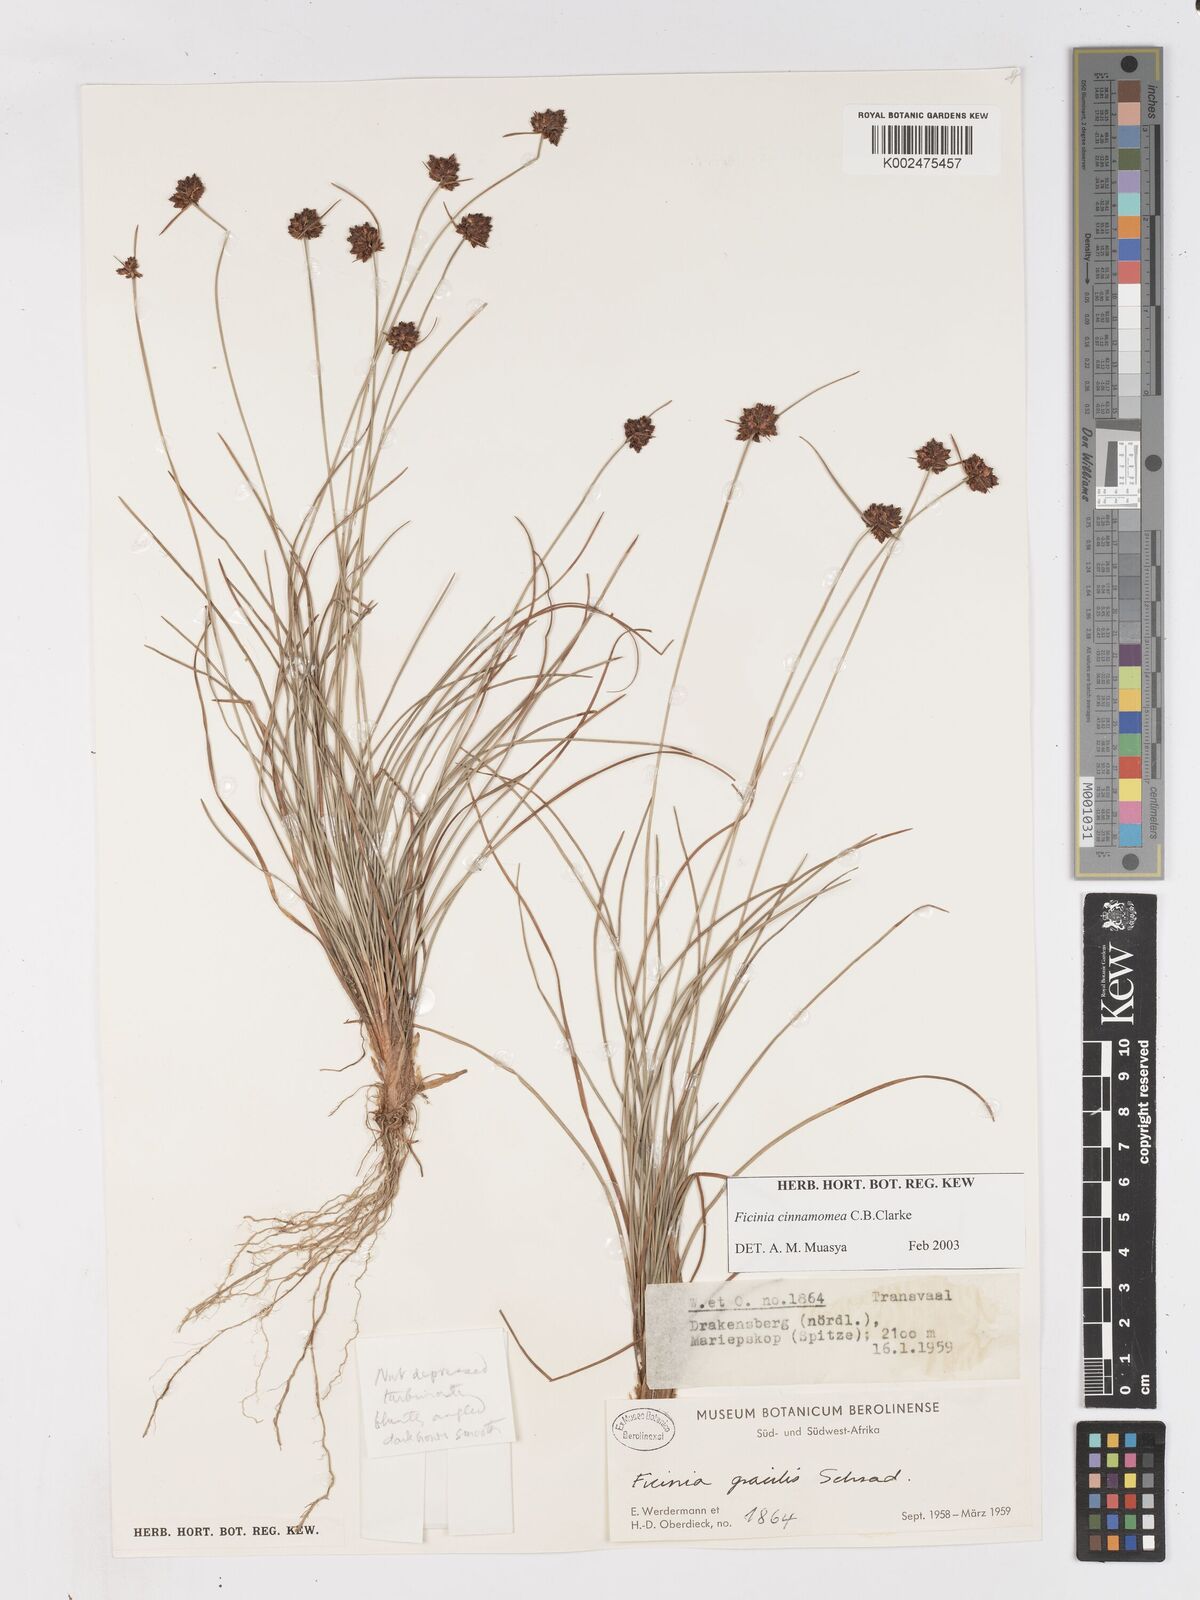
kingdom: Plantae
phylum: Tracheophyta
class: Liliopsida
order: Poales
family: Cyperaceae
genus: Ficinia
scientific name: Ficinia gracilis
